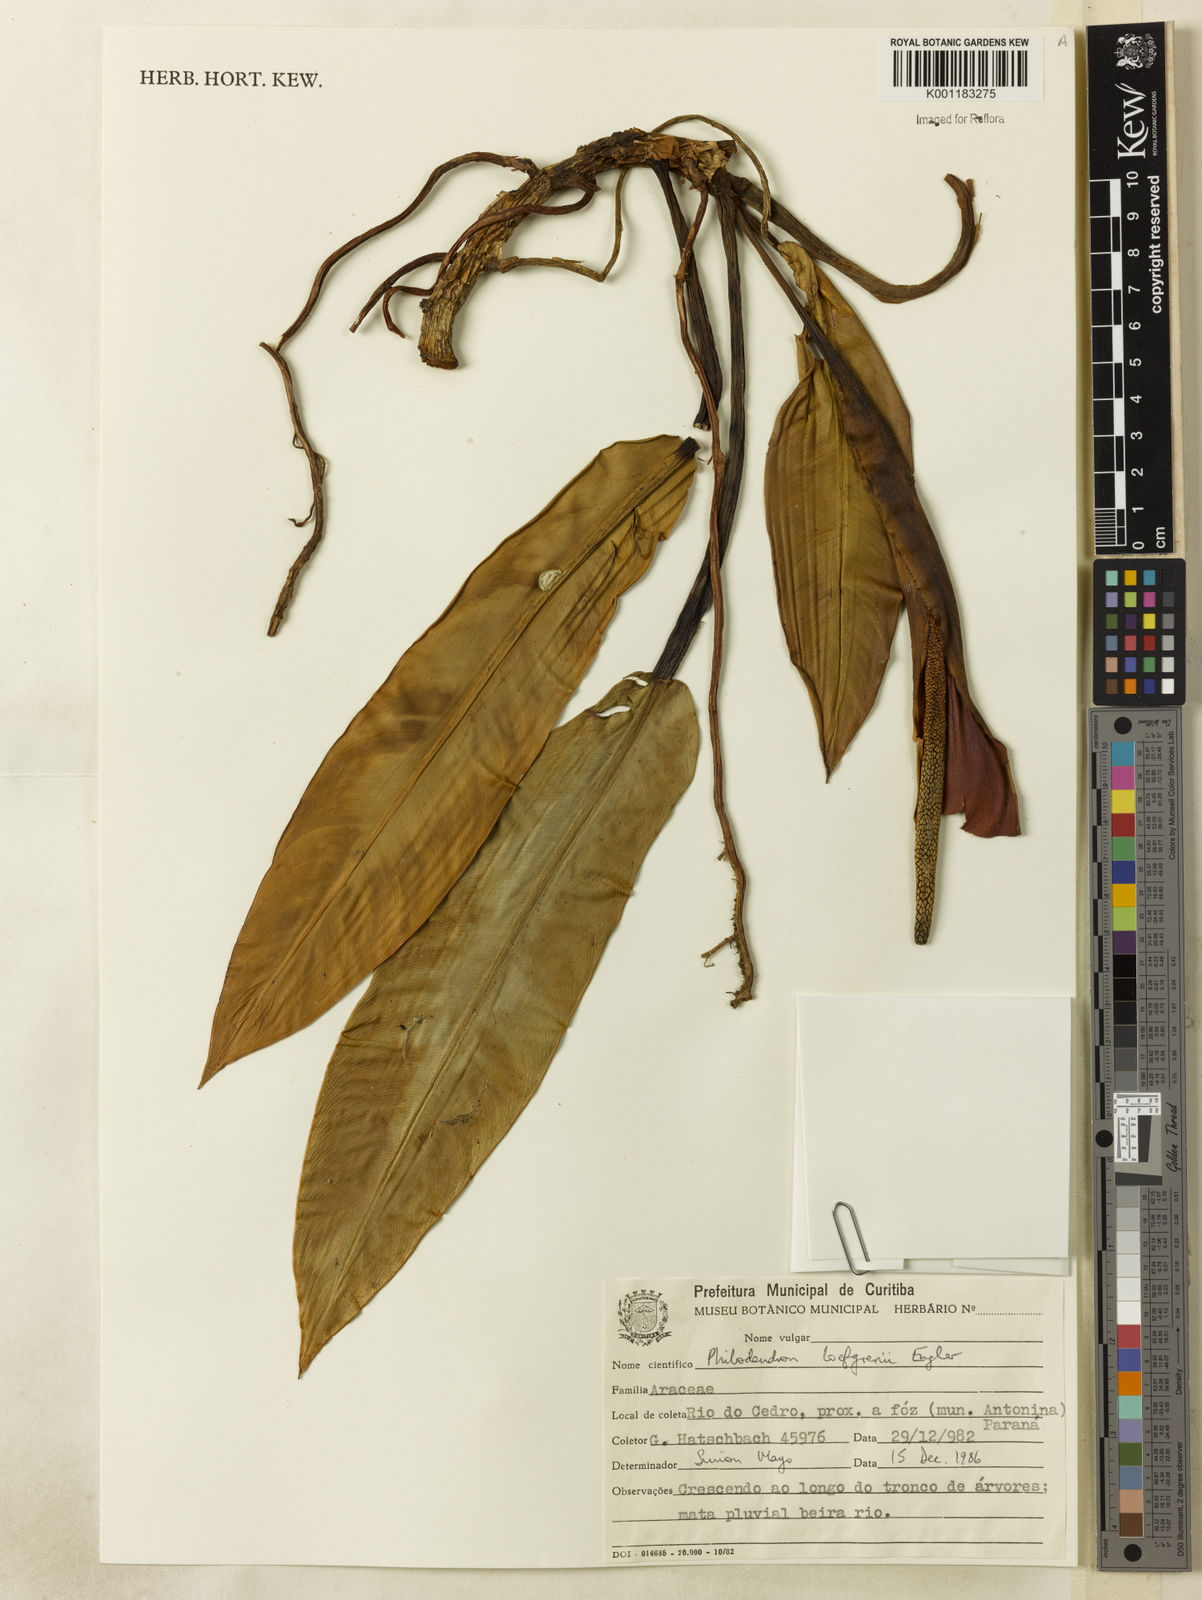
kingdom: Plantae
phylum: Tracheophyta
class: Liliopsida
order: Alismatales
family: Araceae
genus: Philodendron
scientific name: Philodendron loefgrenii
